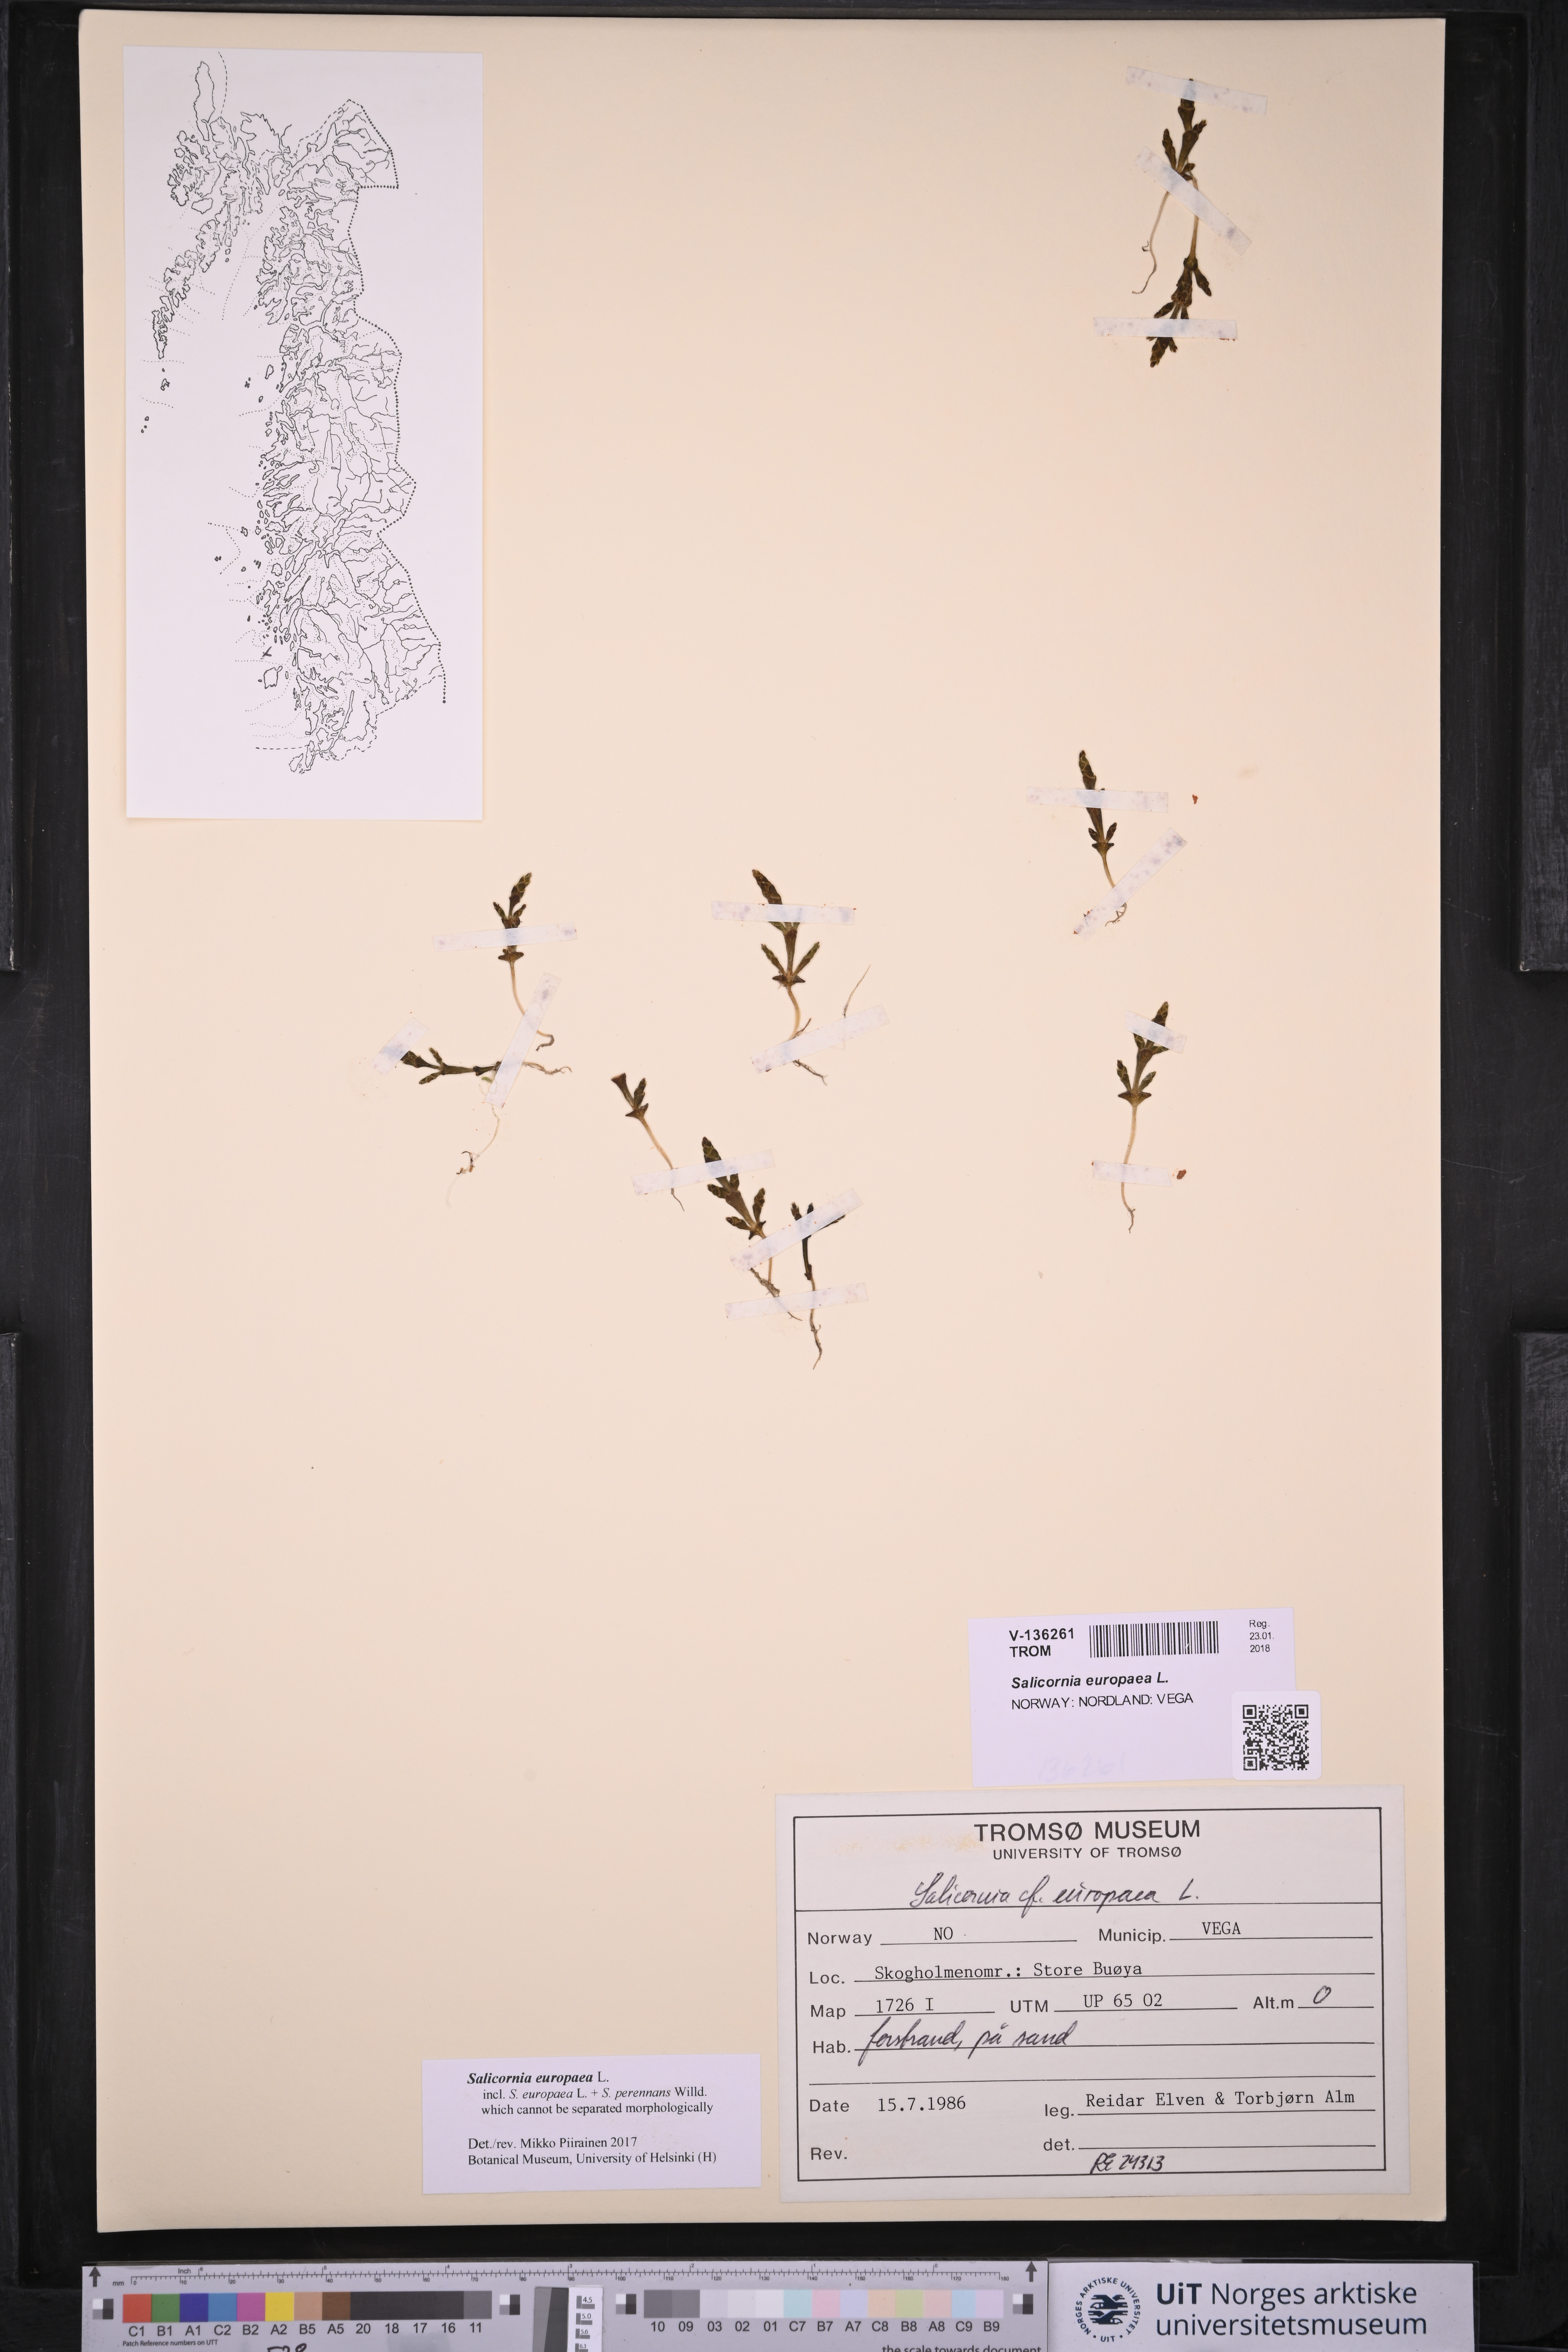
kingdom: Plantae
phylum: Tracheophyta
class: Magnoliopsida
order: Caryophyllales
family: Amaranthaceae
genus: Salicornia
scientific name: Salicornia europaea
